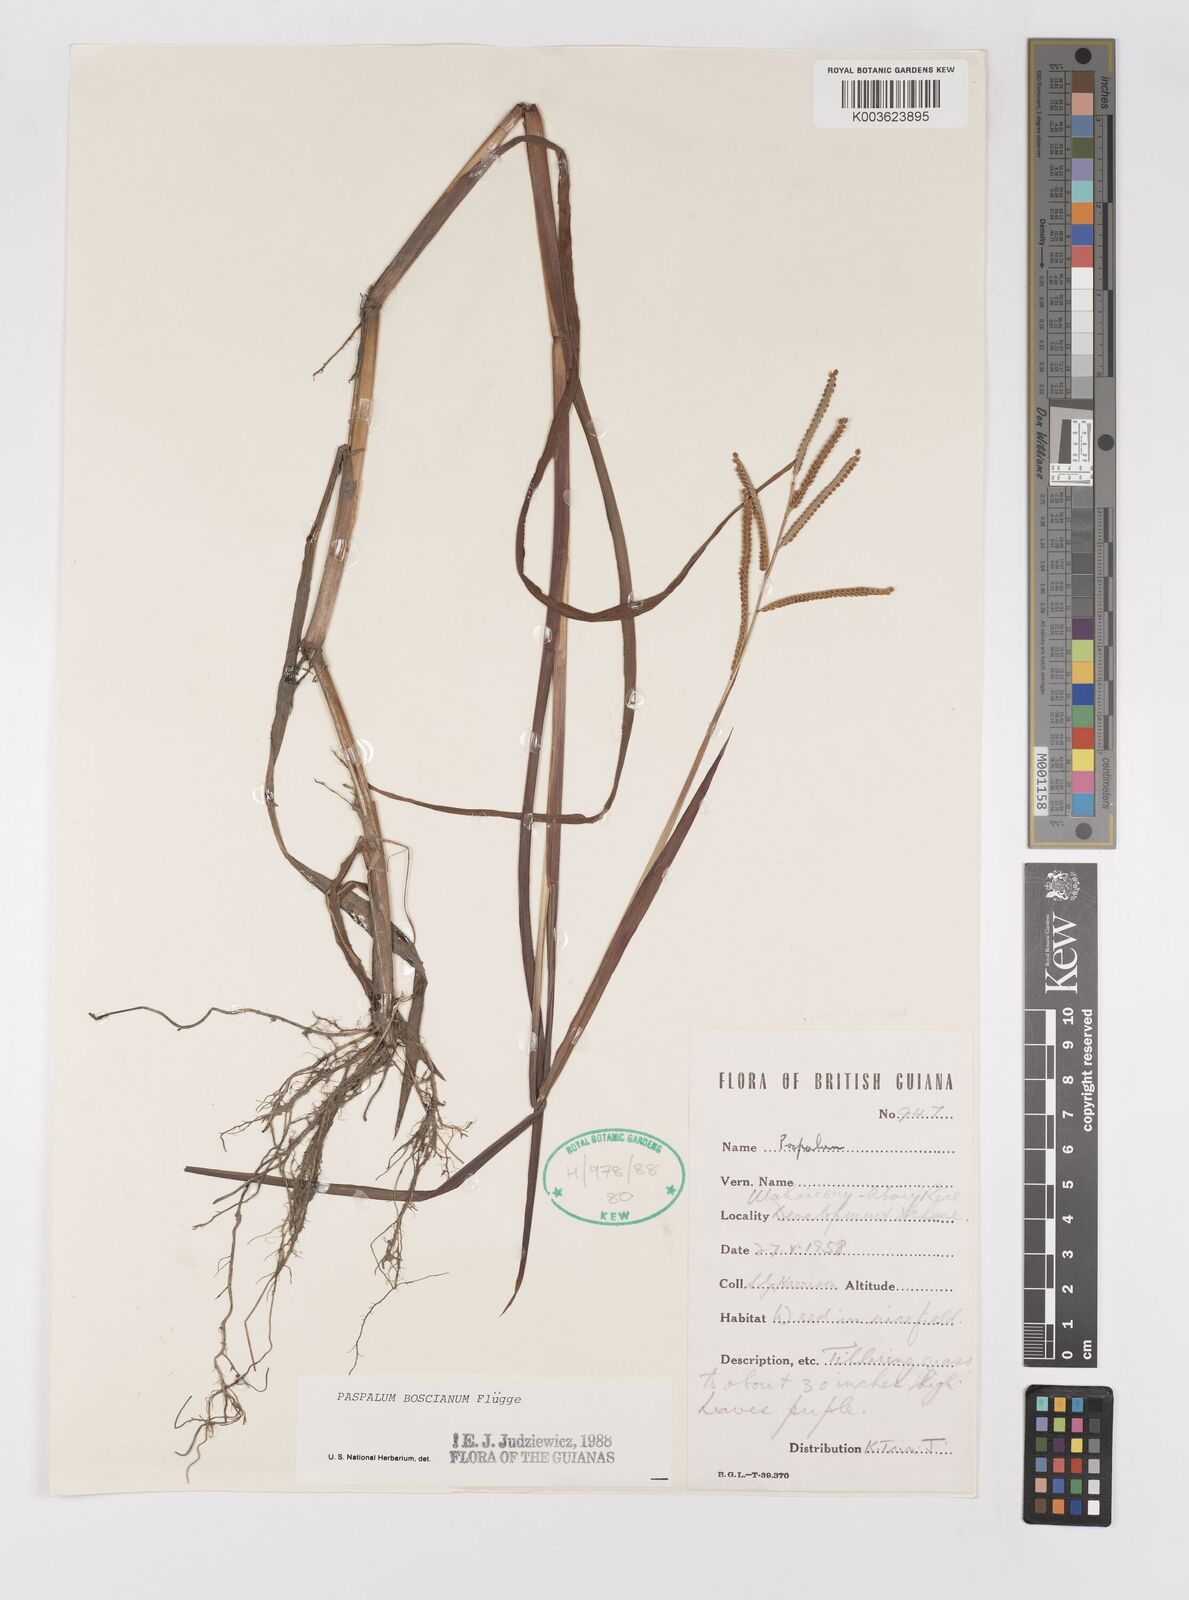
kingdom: Plantae
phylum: Tracheophyta
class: Liliopsida
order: Poales
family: Poaceae
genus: Paspalum
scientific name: Paspalum scrobiculatum
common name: Kodo millet
